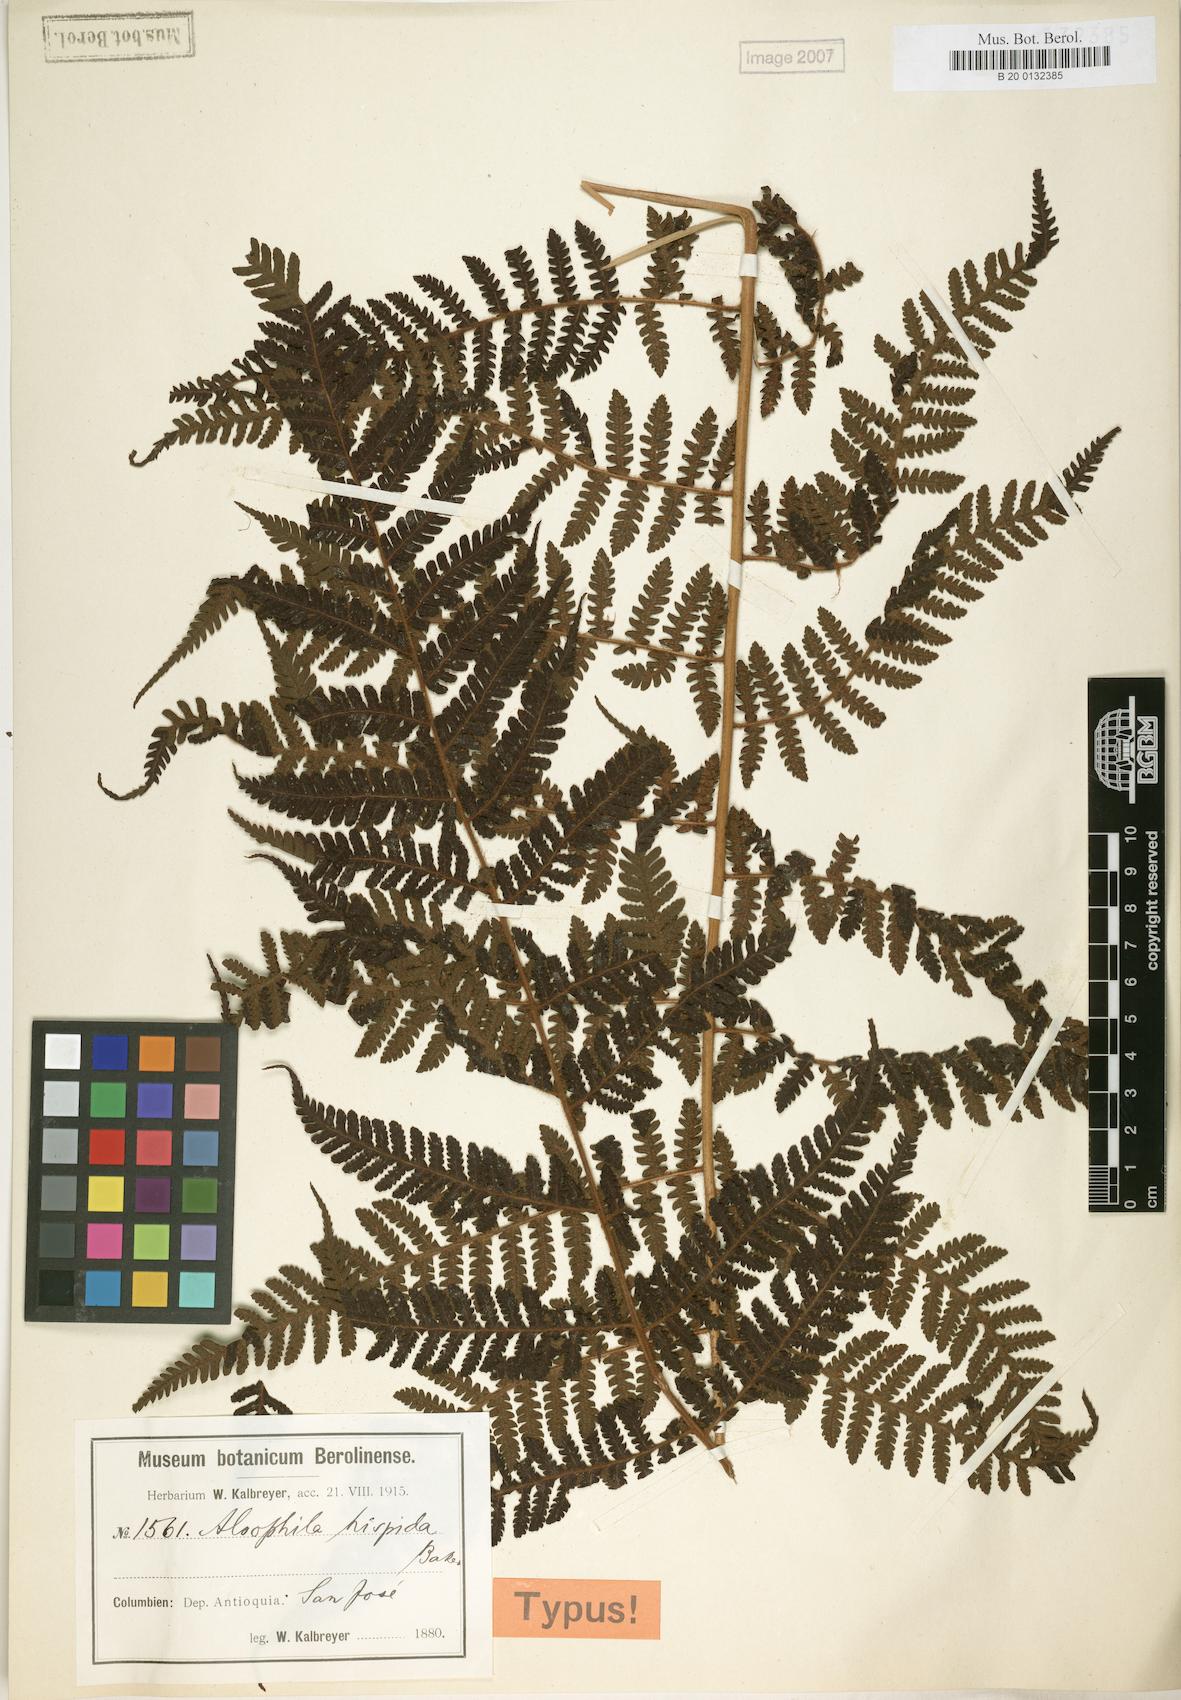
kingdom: Plantae
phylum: Tracheophyta
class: Polypodiopsida
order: Cyatheales
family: Cyatheaceae
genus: Alsophila
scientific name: Alsophila hispida
